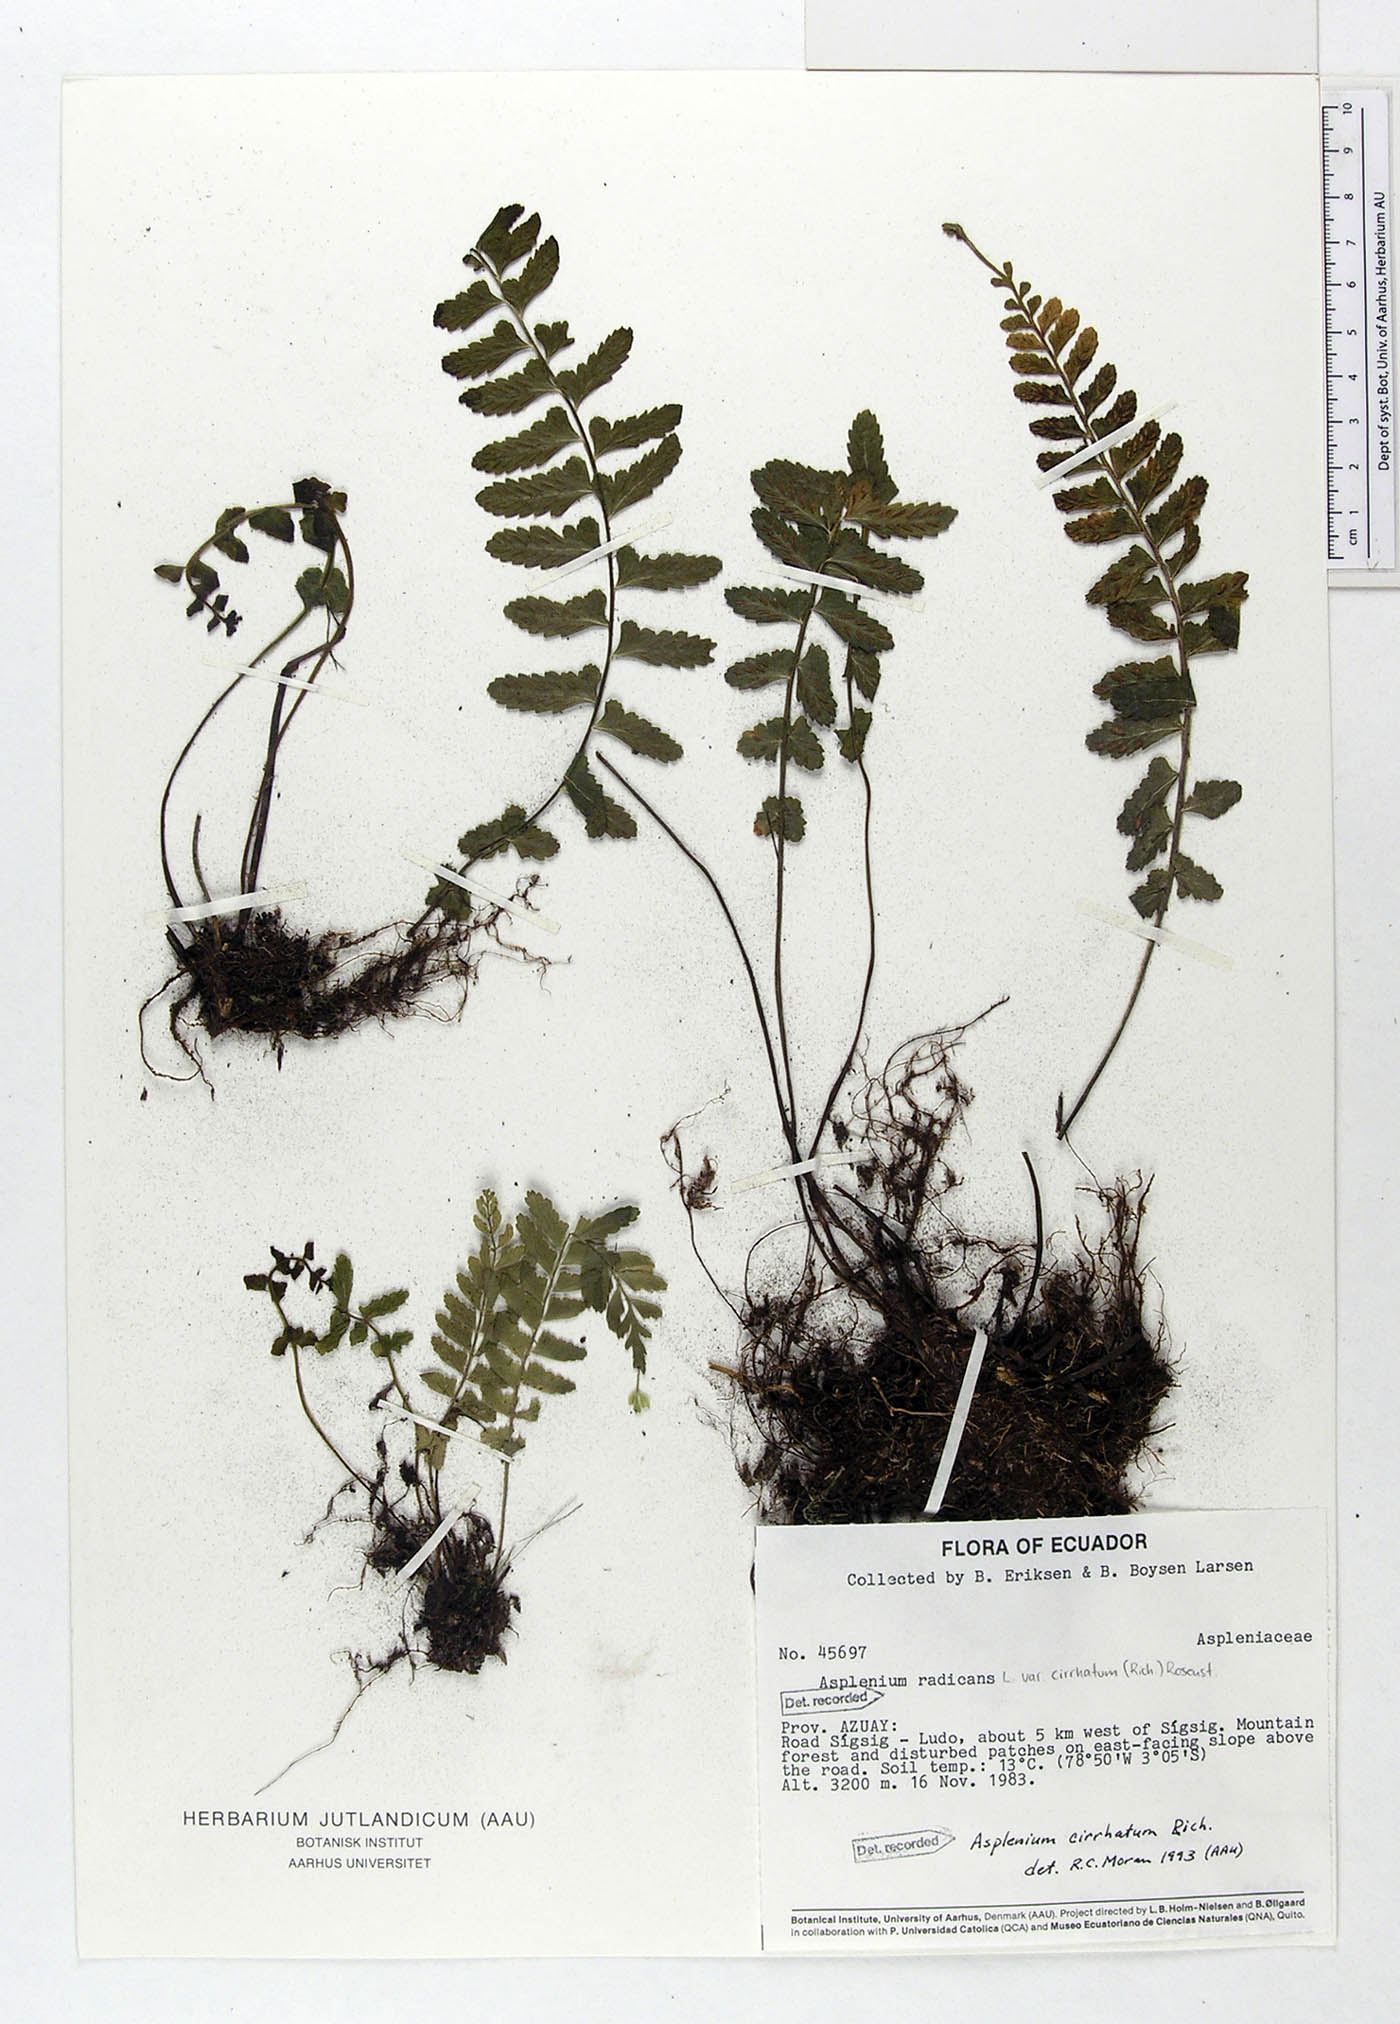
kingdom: Plantae
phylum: Tracheophyta
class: Polypodiopsida
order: Polypodiales
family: Aspleniaceae
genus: Asplenium
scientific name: Asplenium cirrhatum
